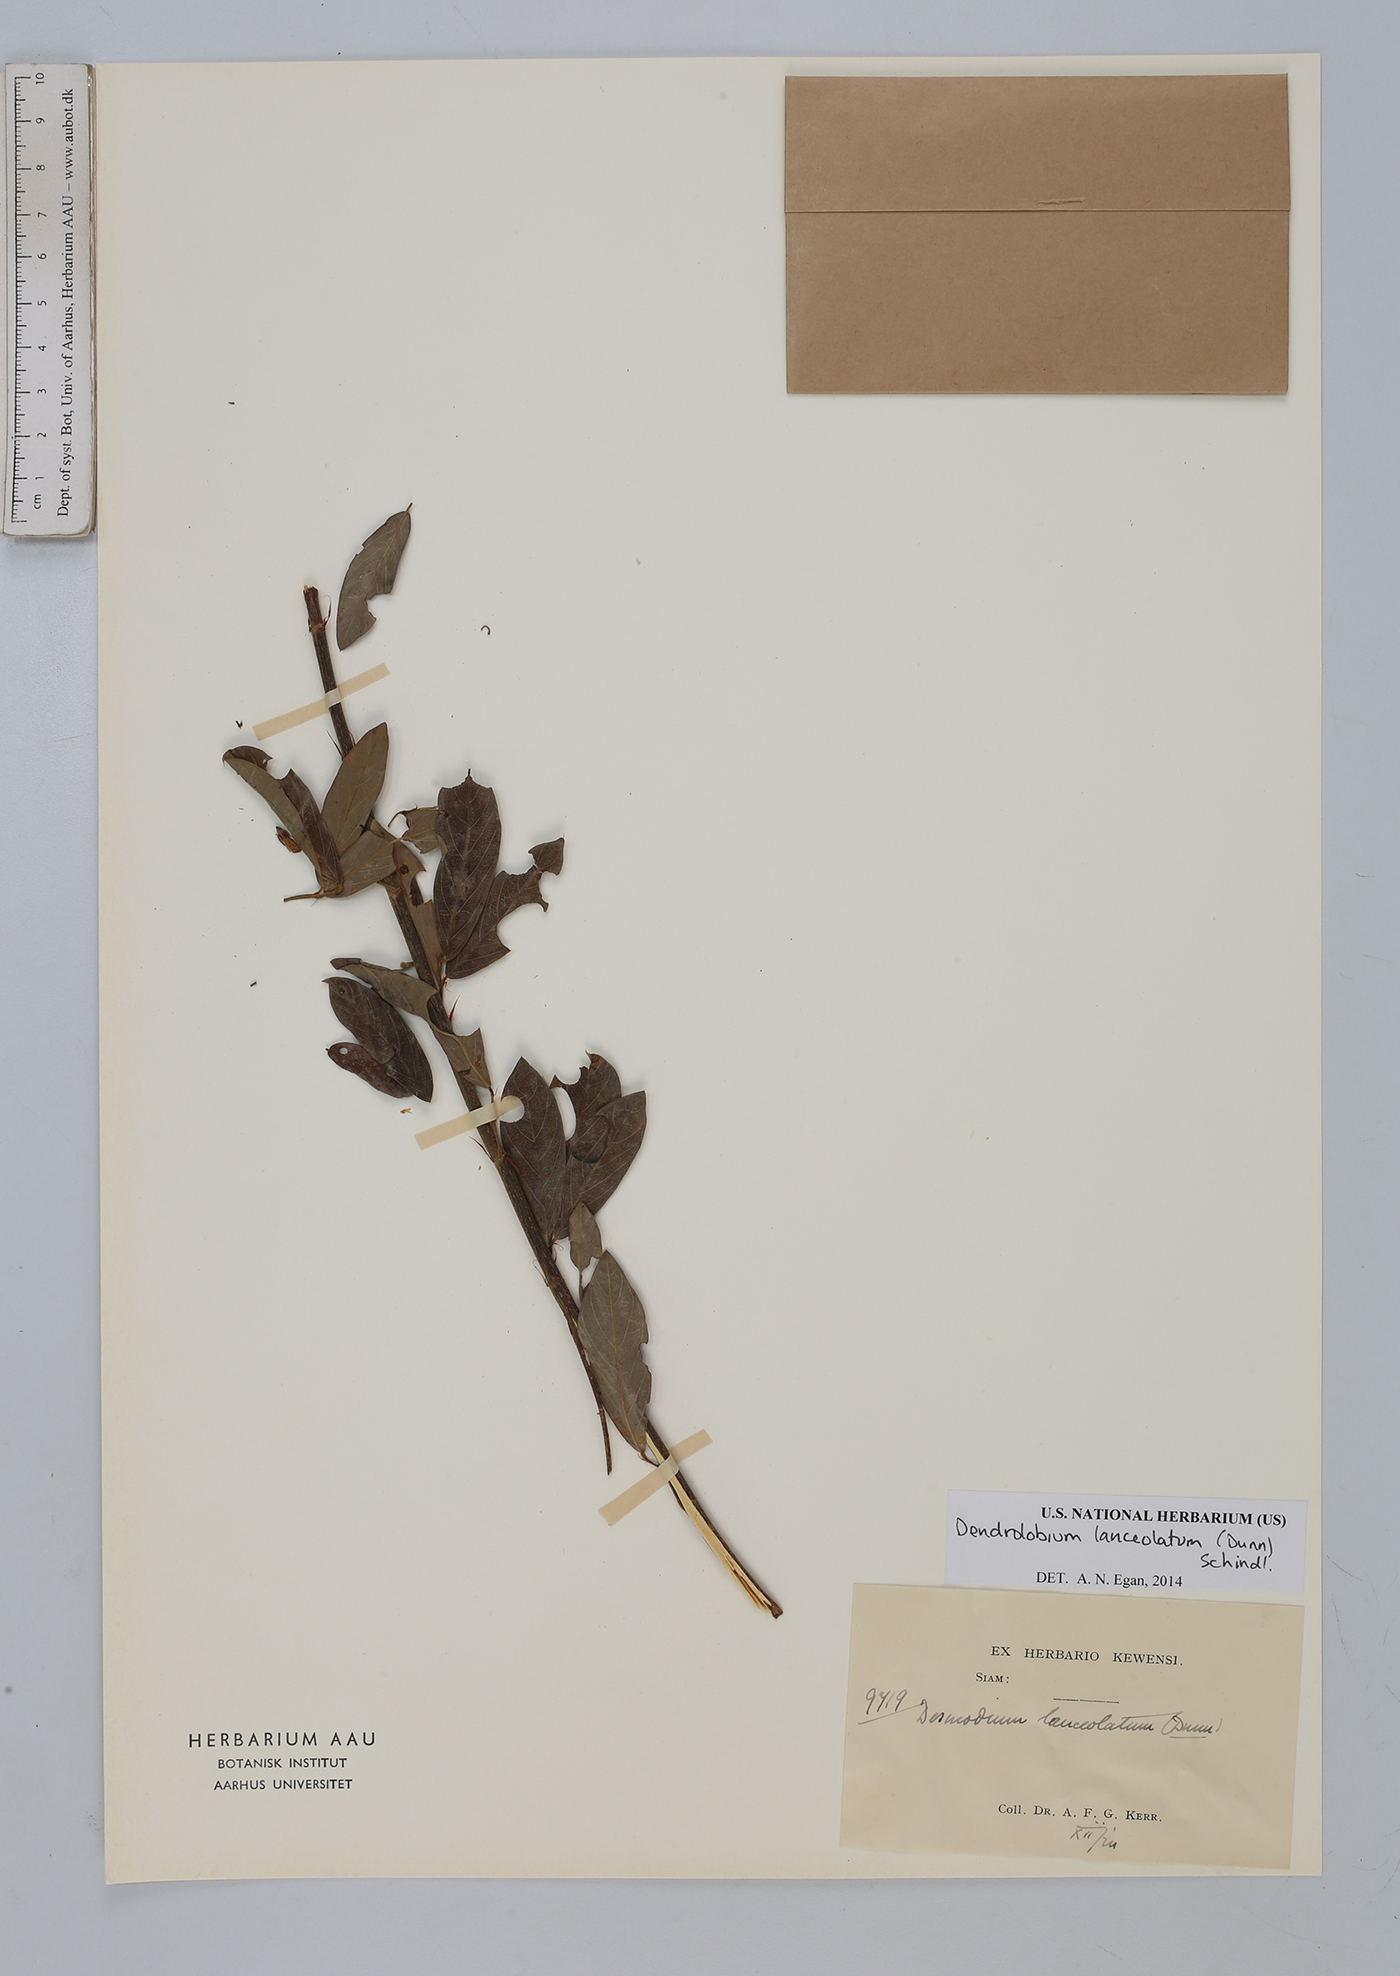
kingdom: Plantae
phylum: Tracheophyta
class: Magnoliopsida
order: Fabales
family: Fabaceae
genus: Dendrolobium
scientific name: Dendrolobium lanceolatum
